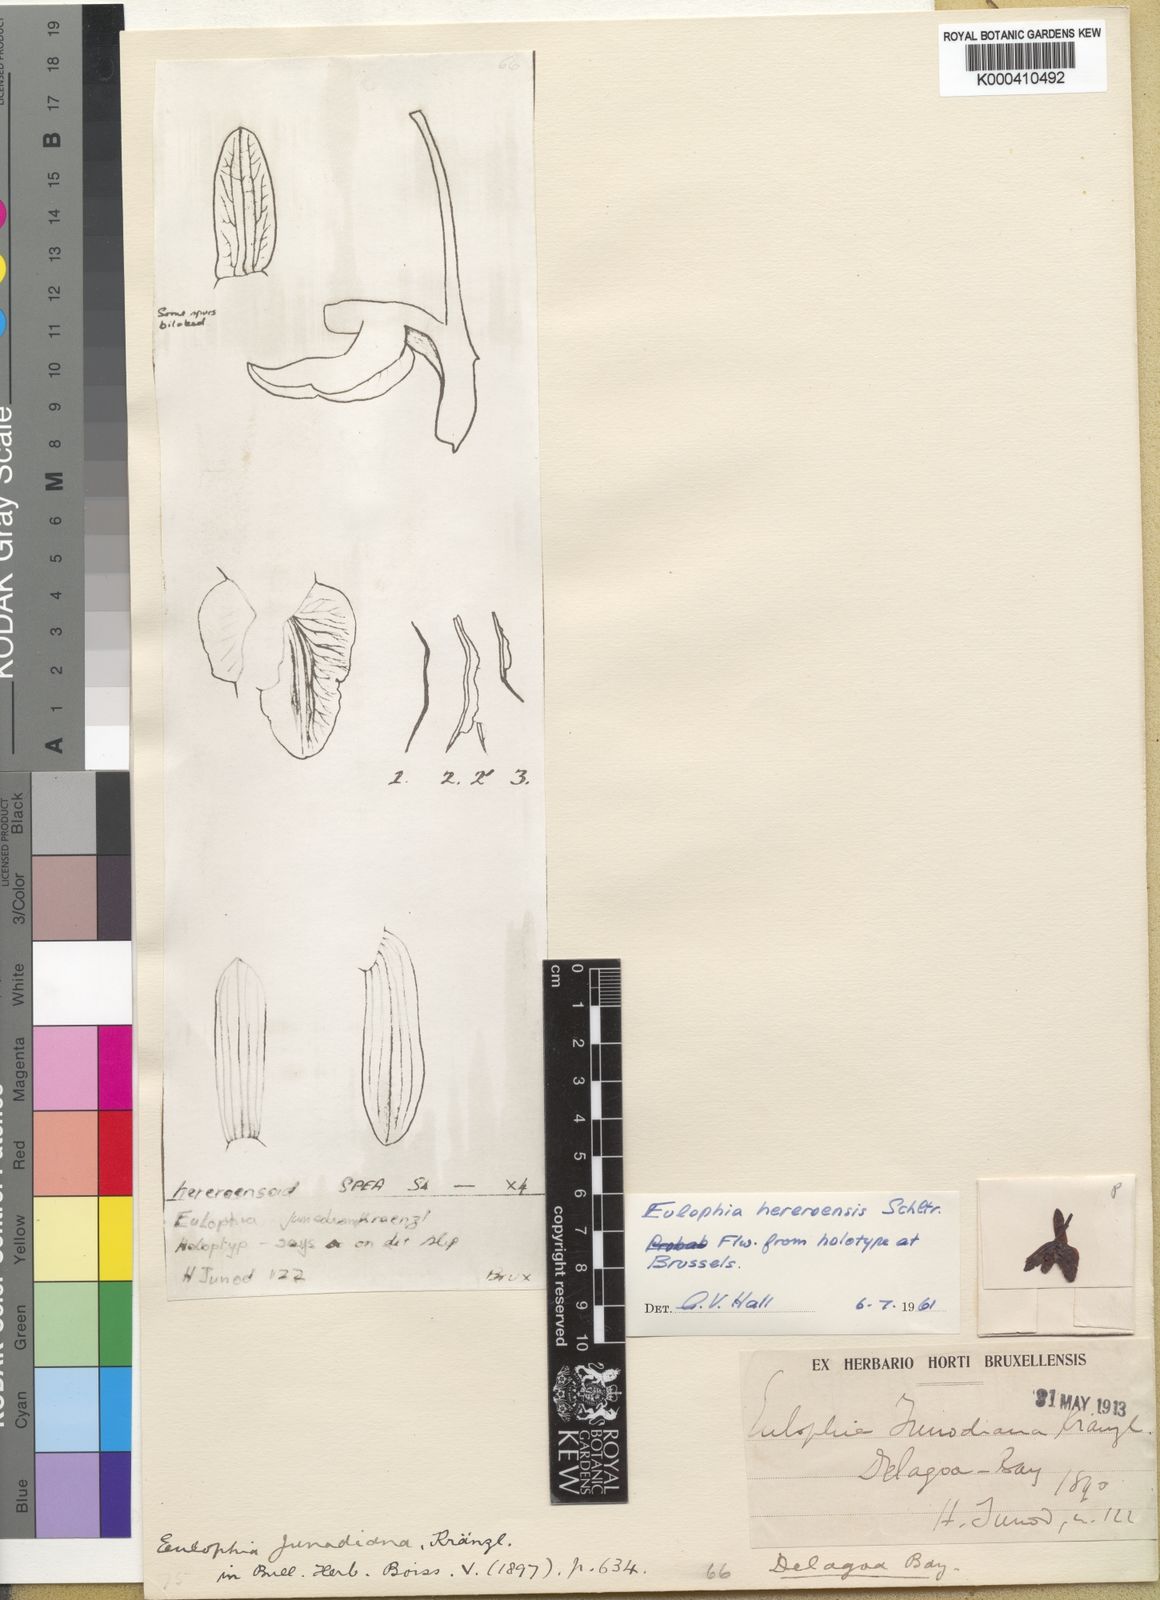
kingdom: Plantae
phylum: Tracheophyta
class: Liliopsida
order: Asparagales
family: Orchidaceae
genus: Eulophia
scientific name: Eulophia hereroensis
